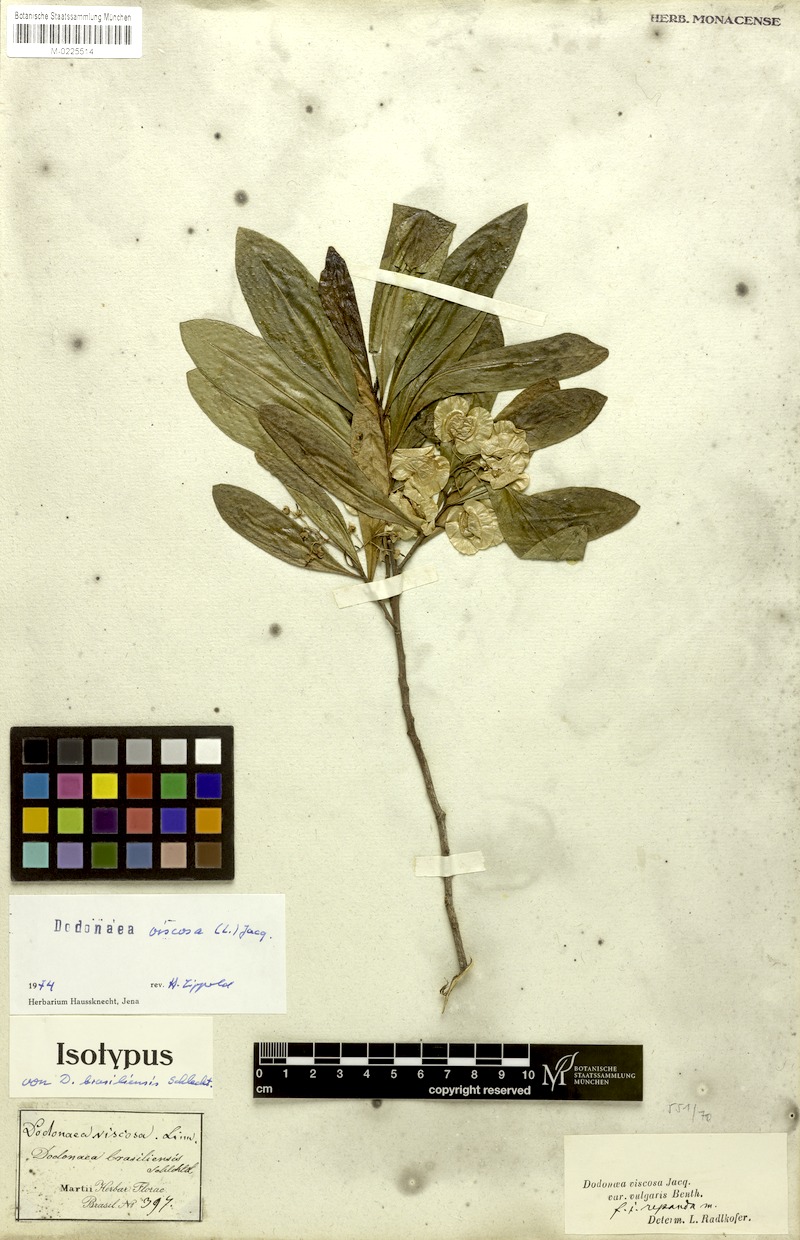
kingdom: Plantae
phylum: Tracheophyta
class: Magnoliopsida
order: Sapindales
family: Sapindaceae
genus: Dodonaea
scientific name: Dodonaea viscosa
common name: Hopbush
